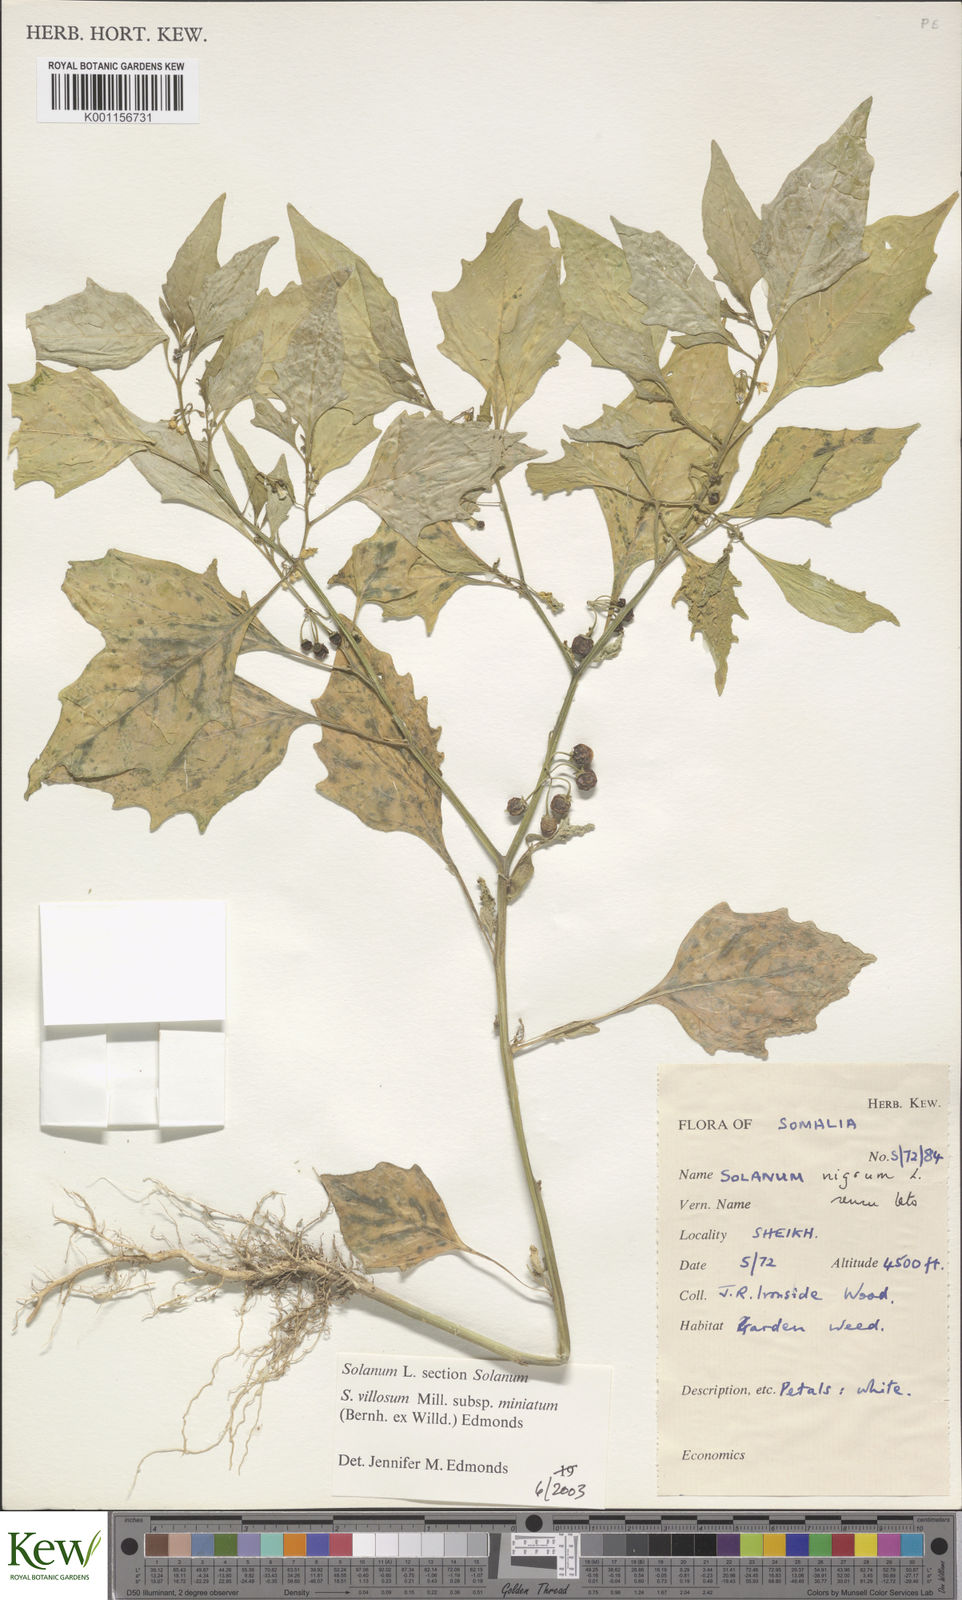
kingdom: Plantae
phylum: Tracheophyta
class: Magnoliopsida
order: Solanales
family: Solanaceae
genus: Solanum
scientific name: Solanum villosum
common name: Red nightshade
